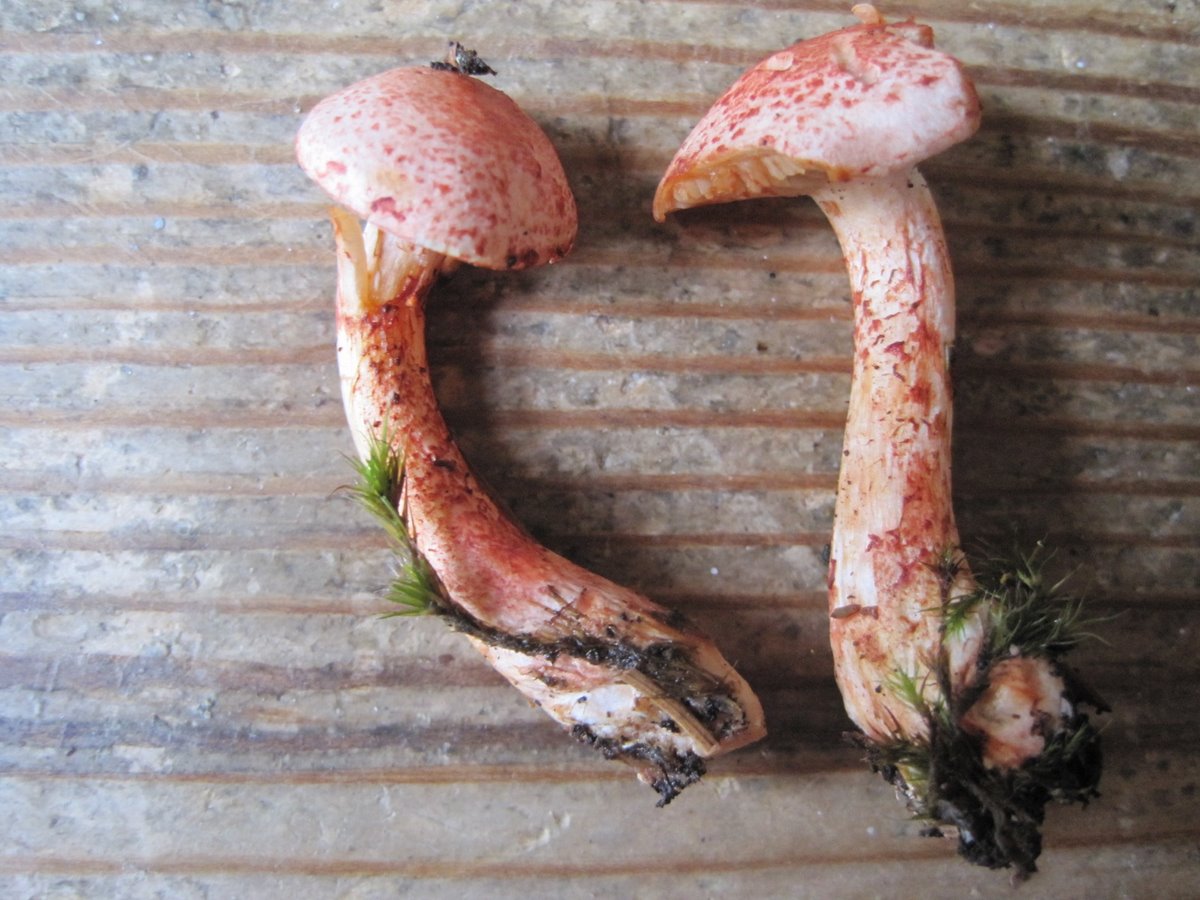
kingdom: Fungi
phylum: Basidiomycota
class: Agaricomycetes
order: Agaricales
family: Cortinariaceae
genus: Cortinarius
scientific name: Cortinarius bolaris
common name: cinnoberskællet slørhat
